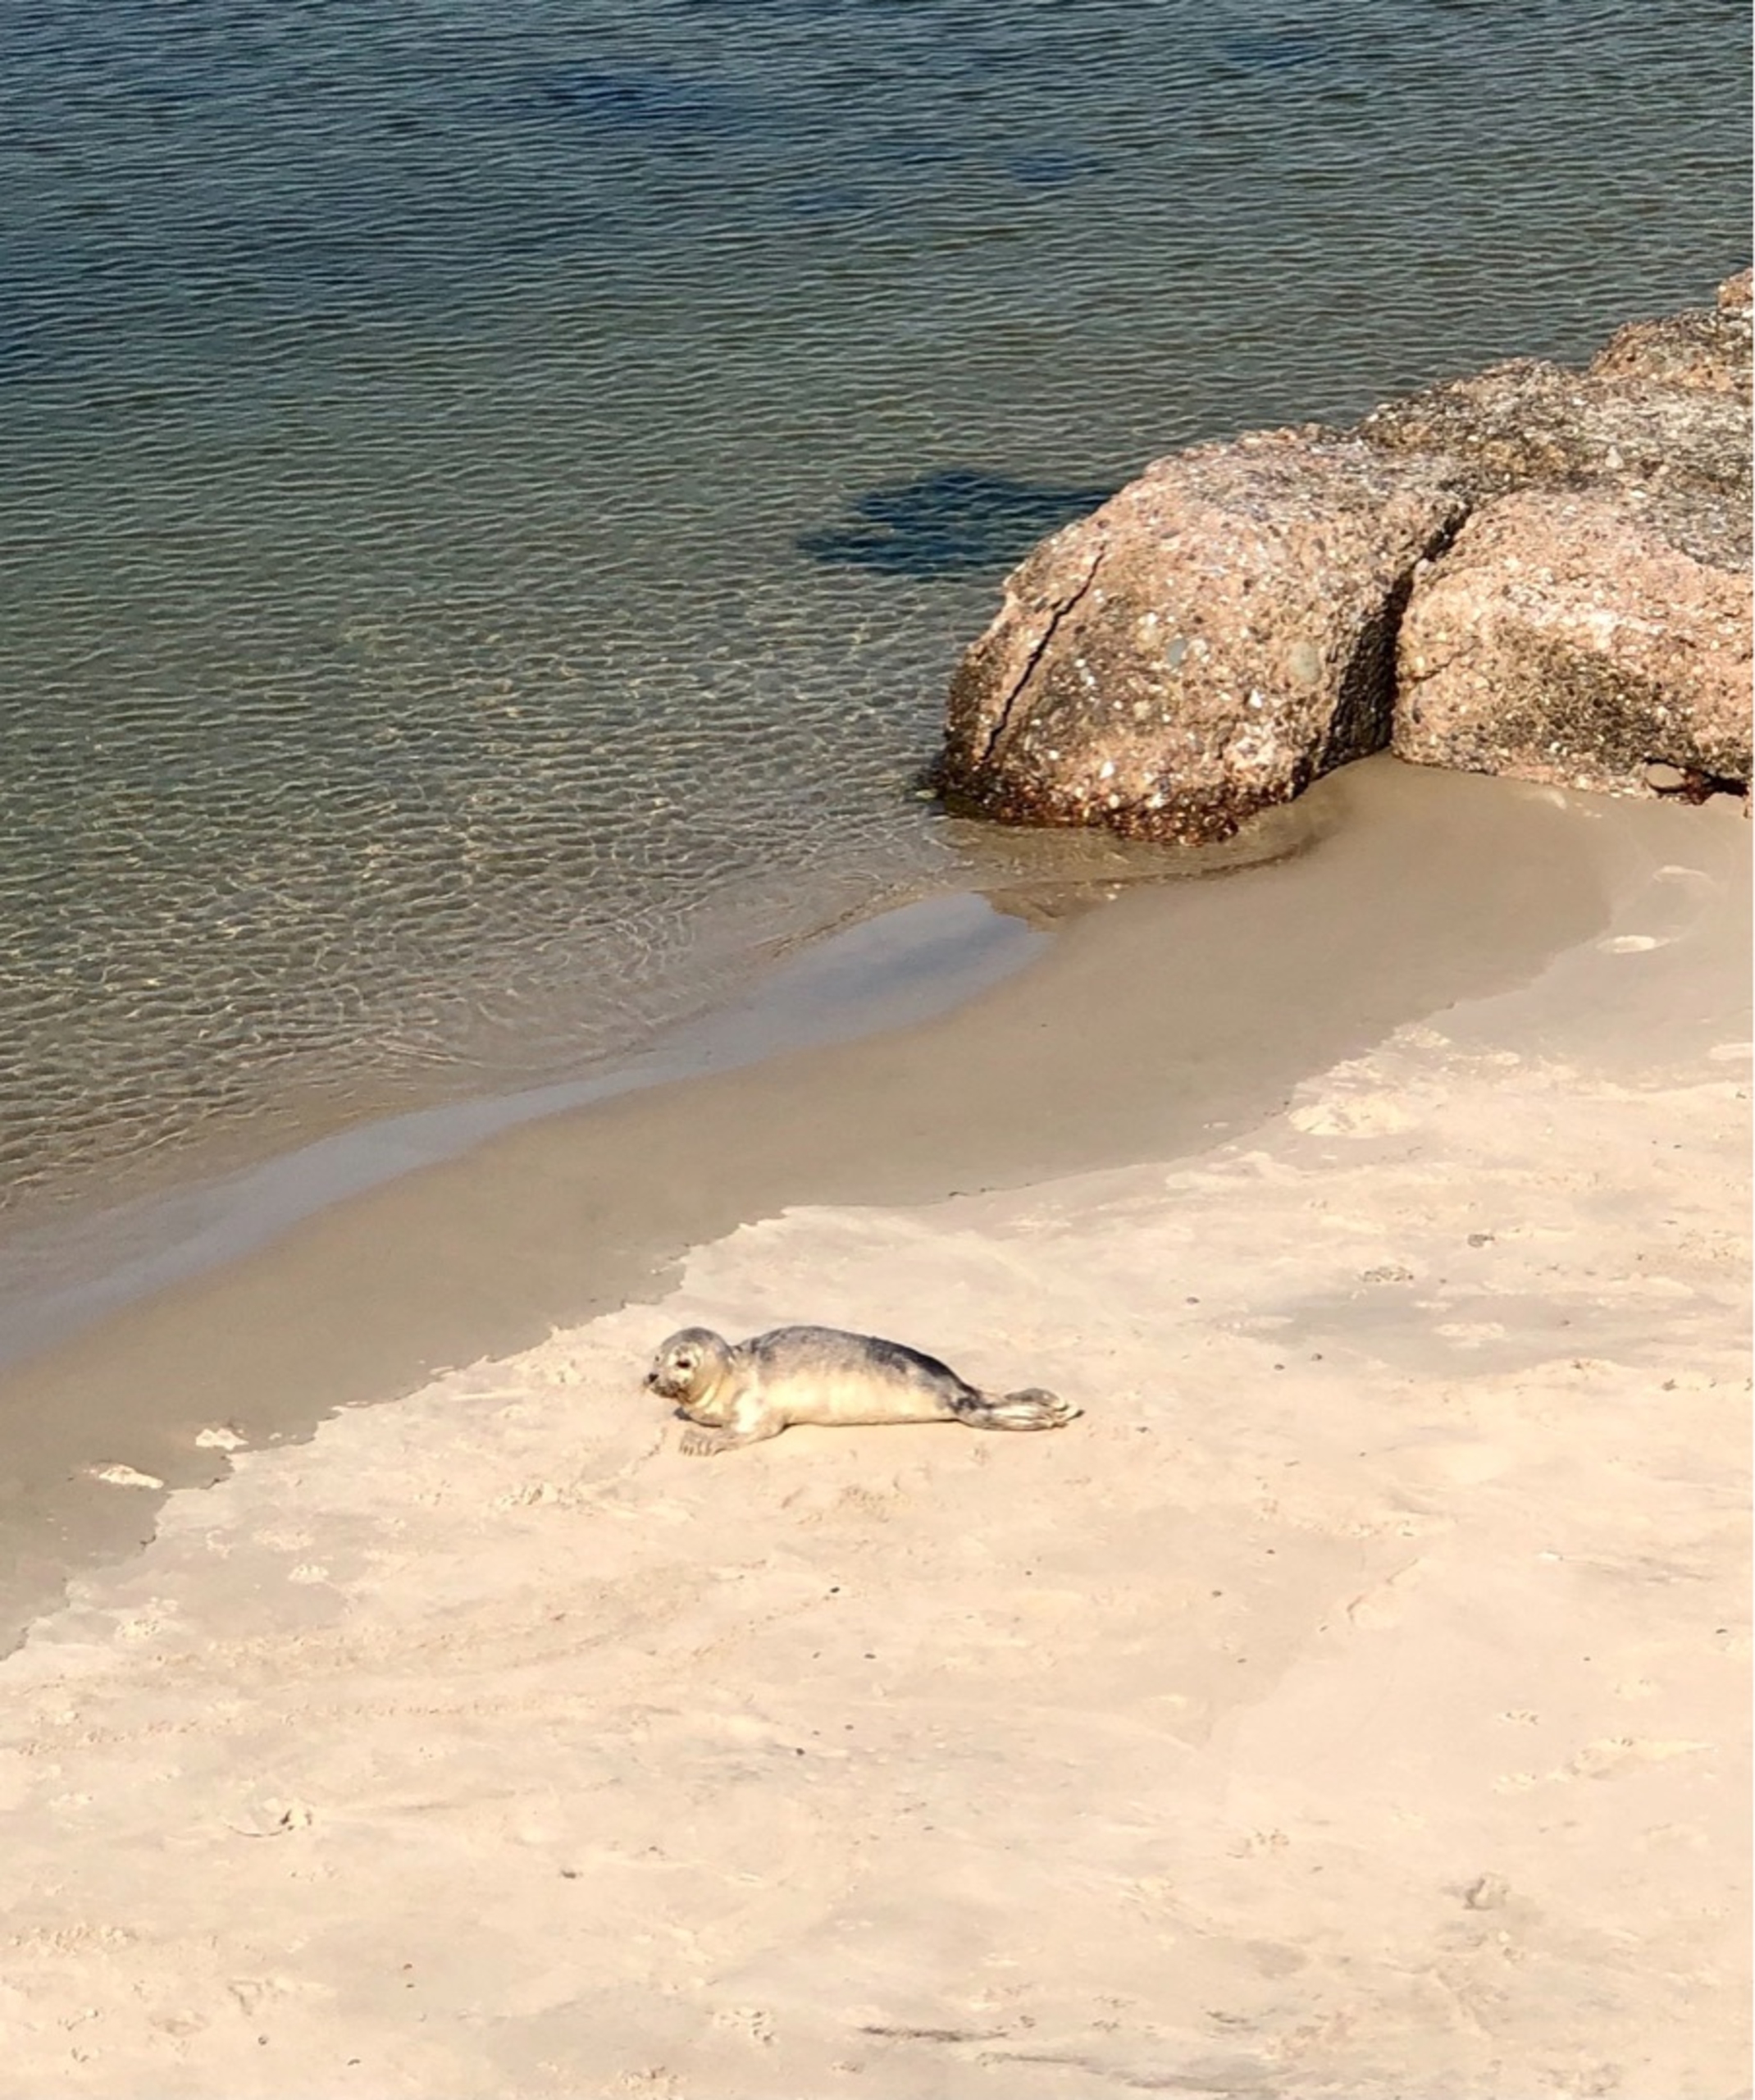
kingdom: Animalia
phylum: Chordata
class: Mammalia
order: Carnivora
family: Phocidae
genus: Phoca
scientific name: Phoca vitulina
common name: Spættet sæl
